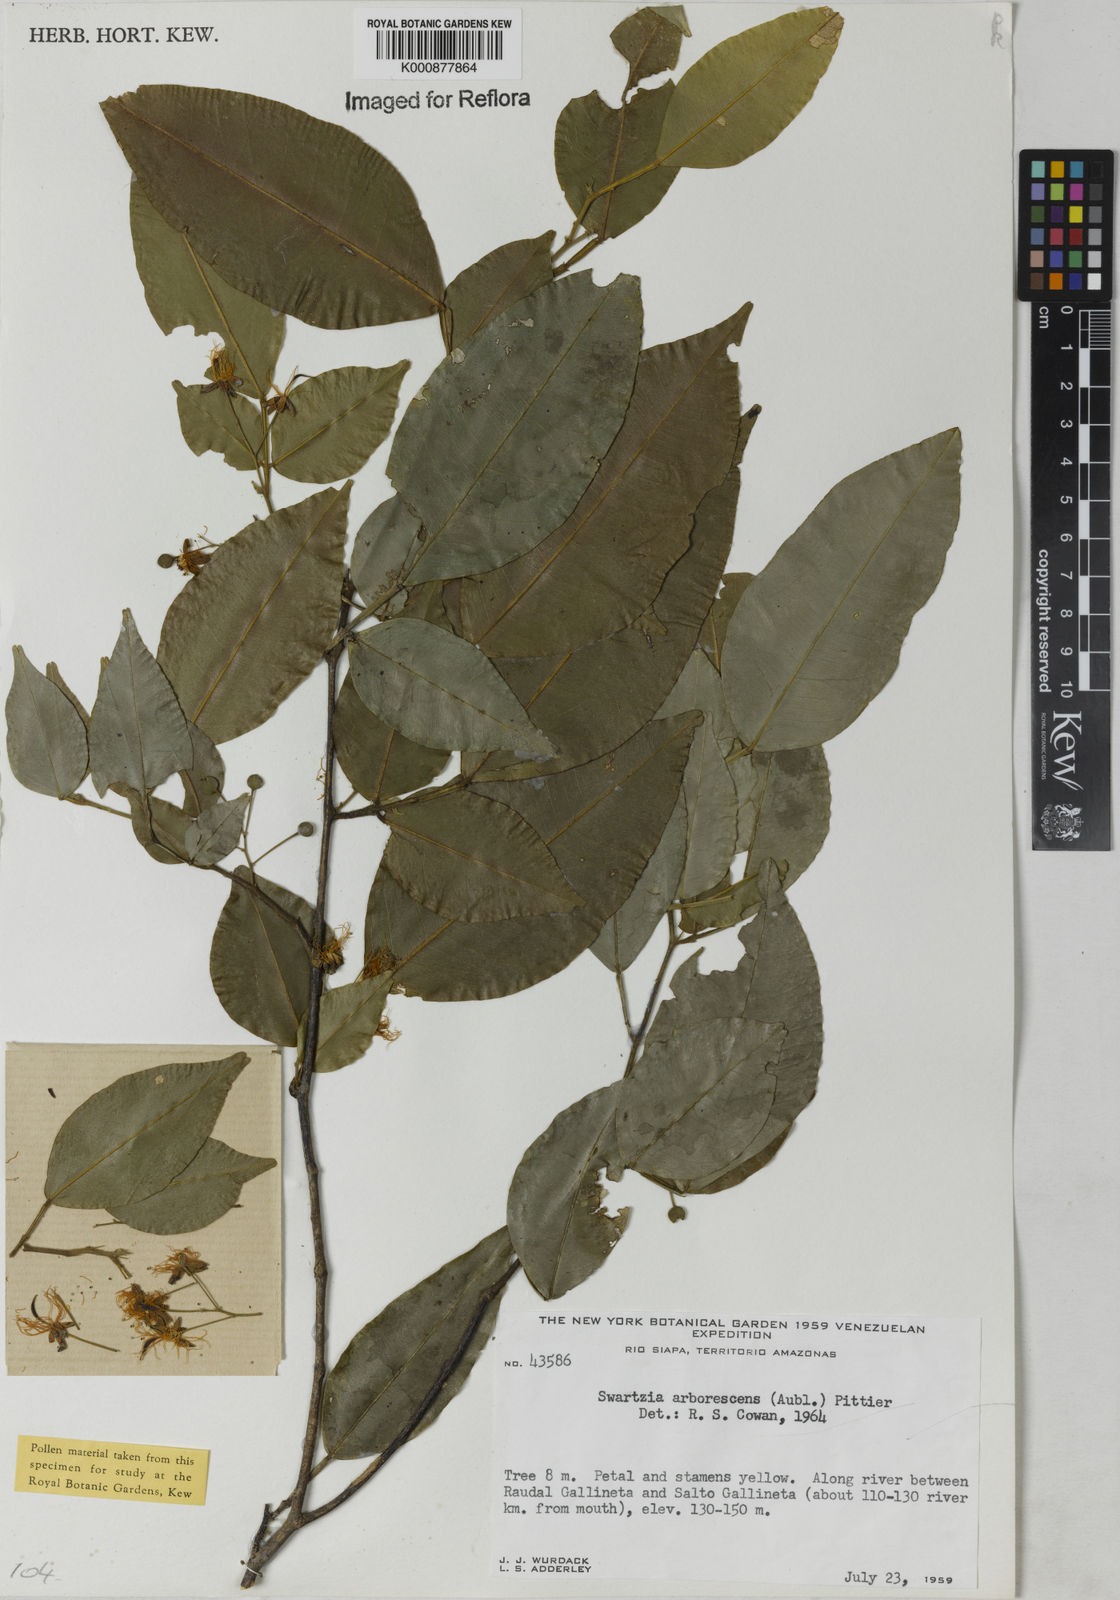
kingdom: Plantae
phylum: Tracheophyta
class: Magnoliopsida
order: Fabales
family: Fabaceae
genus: Swartzia
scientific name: Swartzia arborescens
